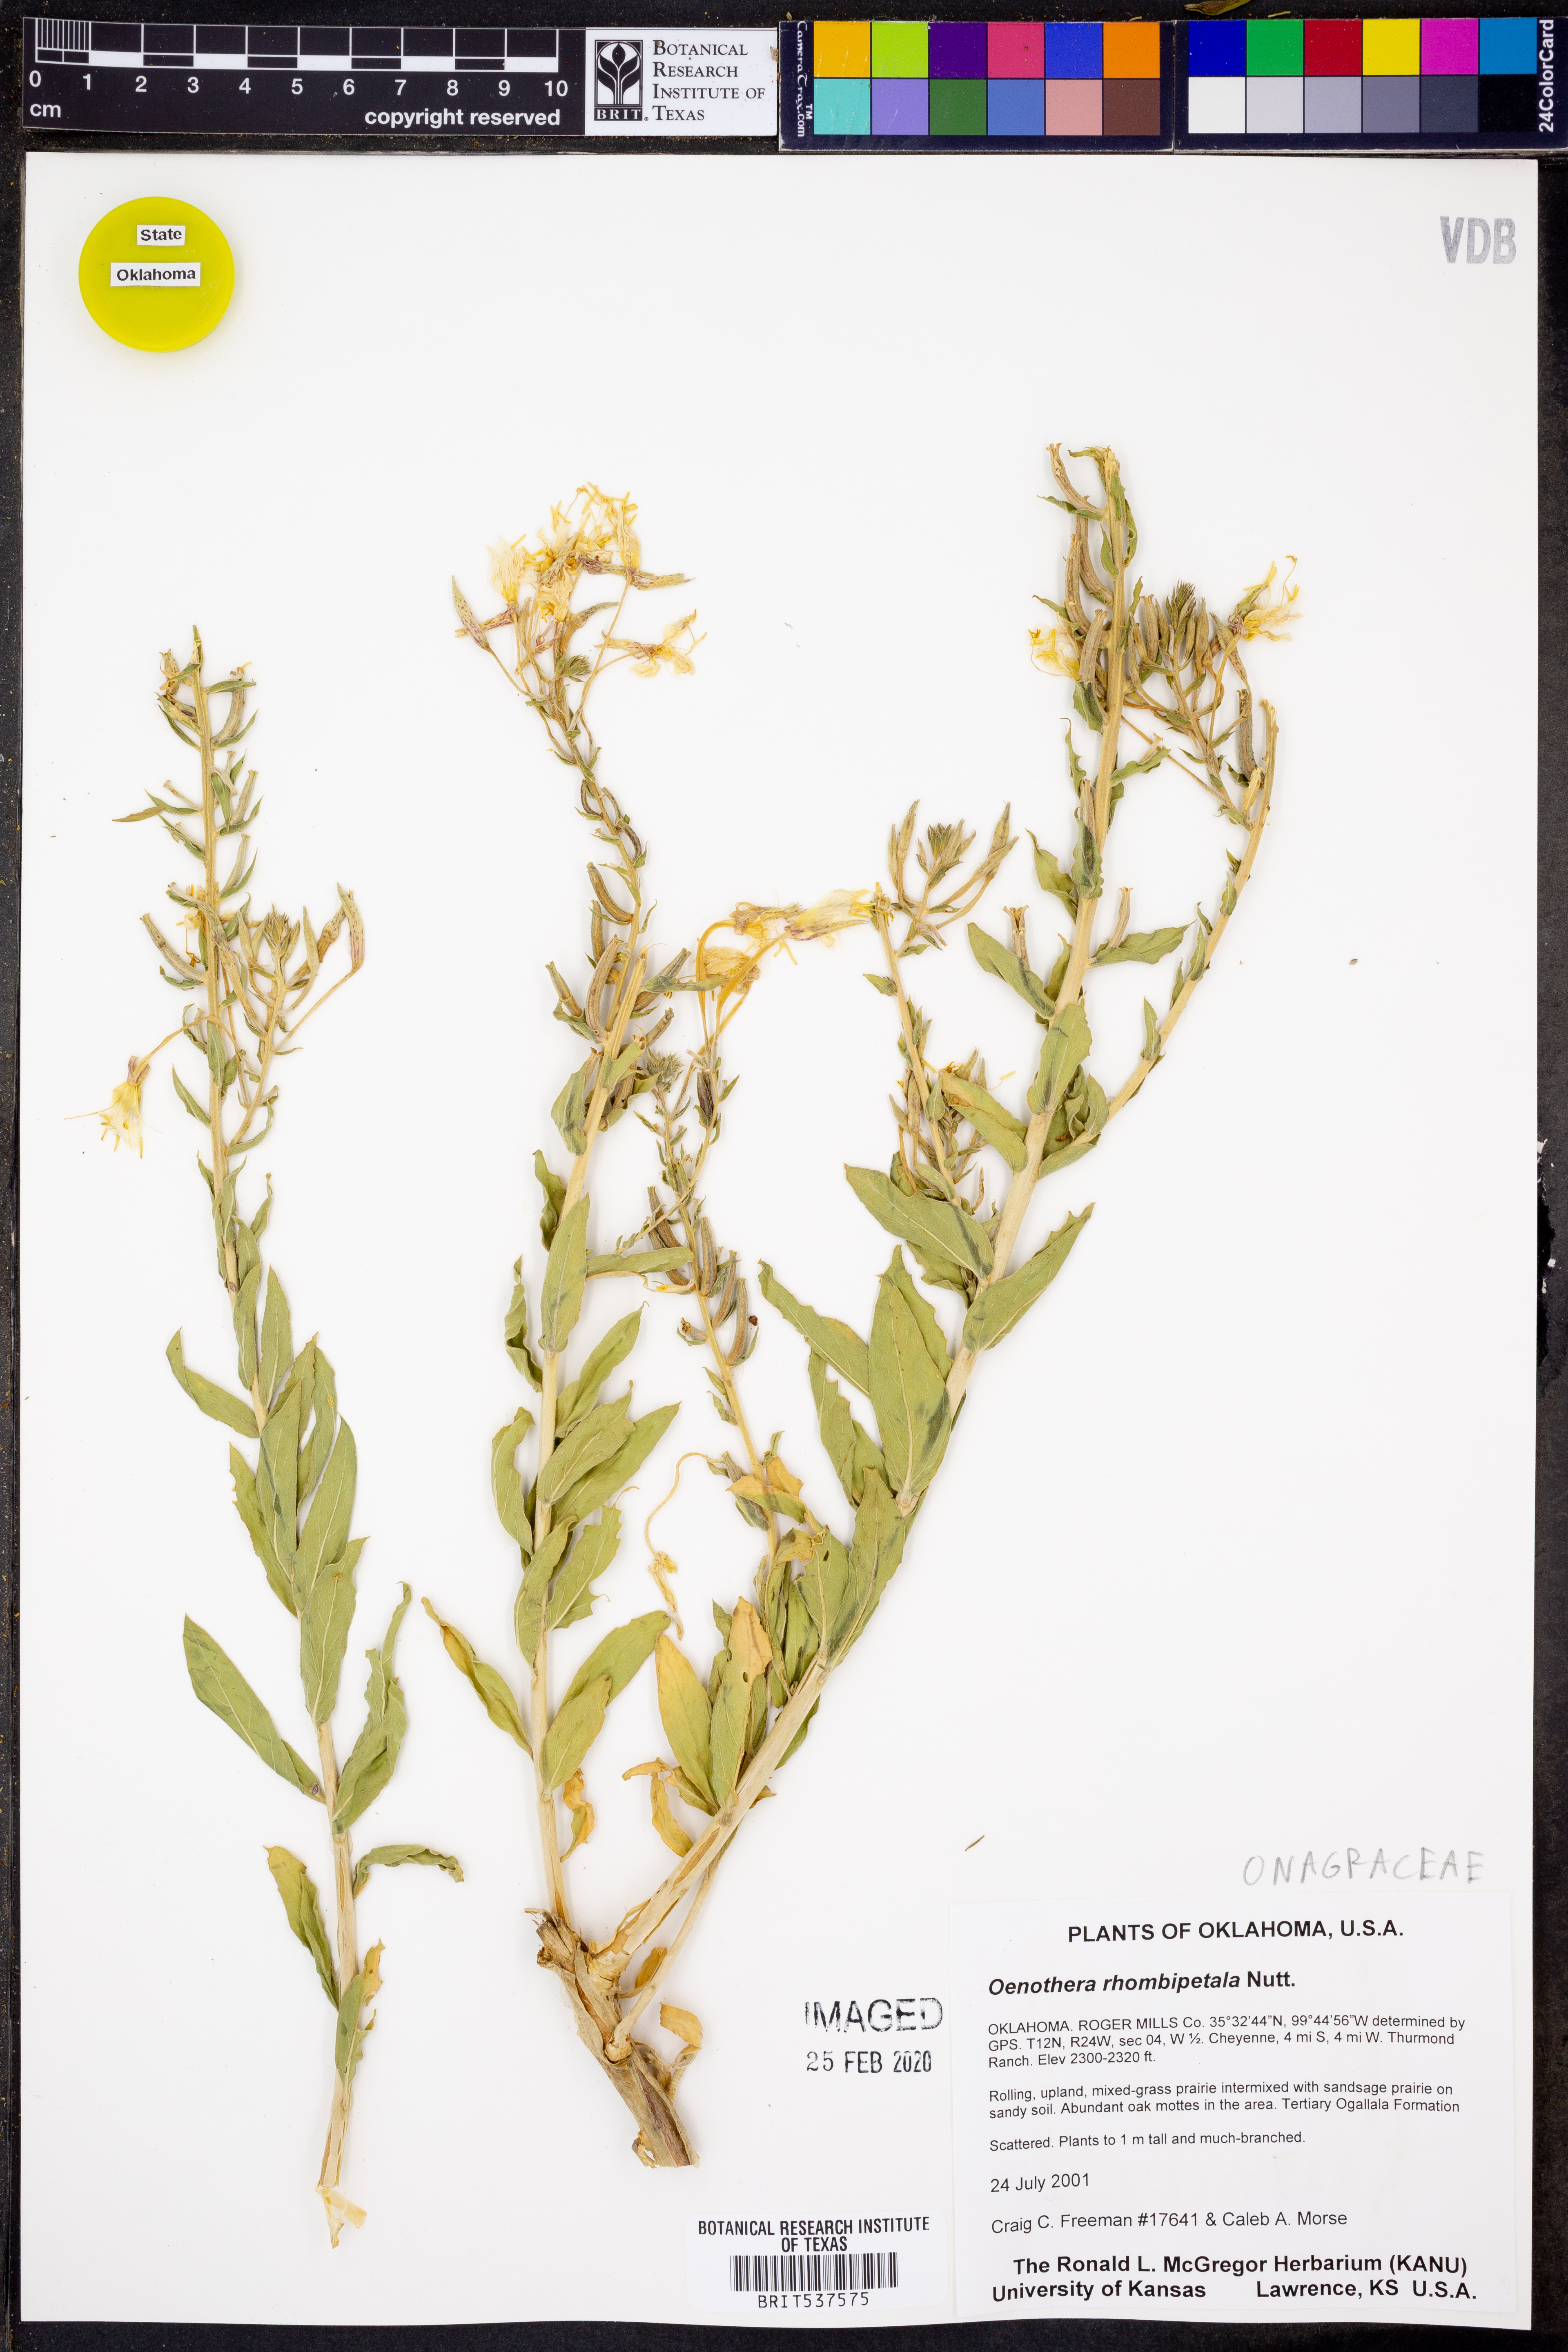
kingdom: Plantae
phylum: Tracheophyta
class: Magnoliopsida
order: Myrtales
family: Onagraceae
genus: Oenothera
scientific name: Oenothera rhombipetala
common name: Four-points evening-primrose
